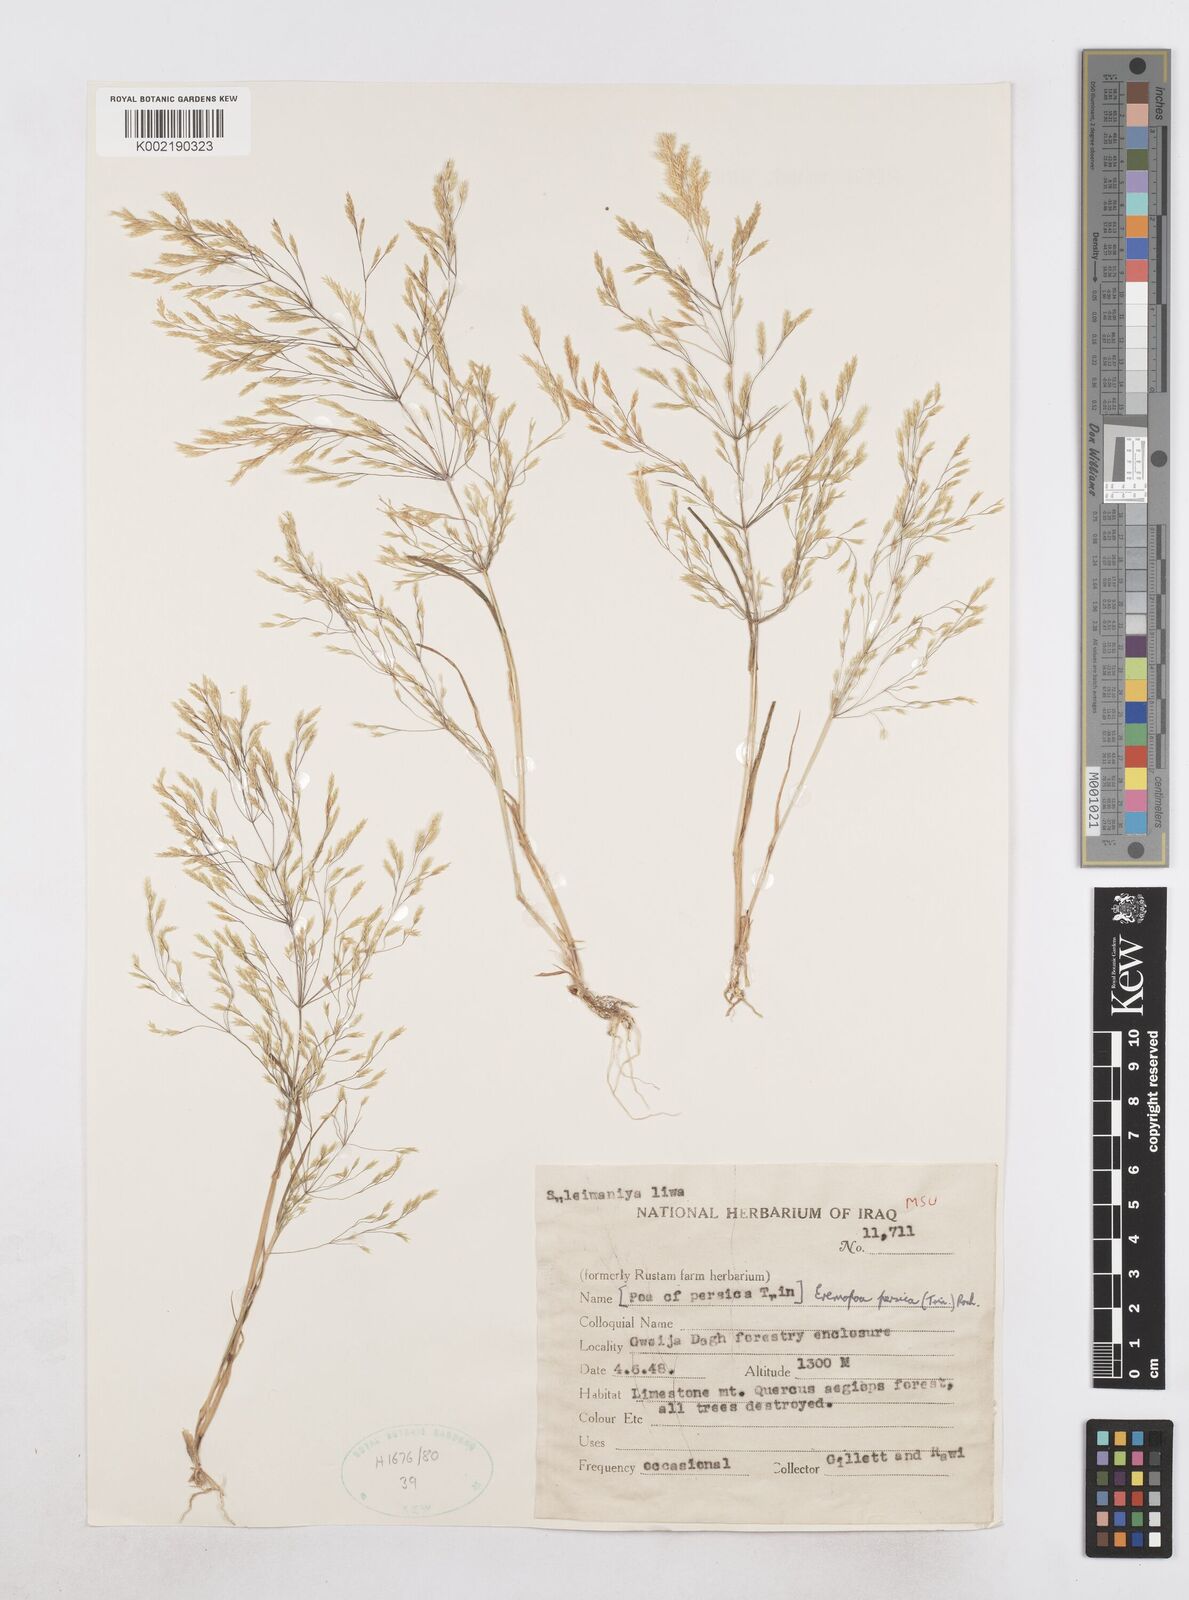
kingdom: Plantae
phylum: Tracheophyta
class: Liliopsida
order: Poales
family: Poaceae
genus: Poa
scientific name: Poa persica
